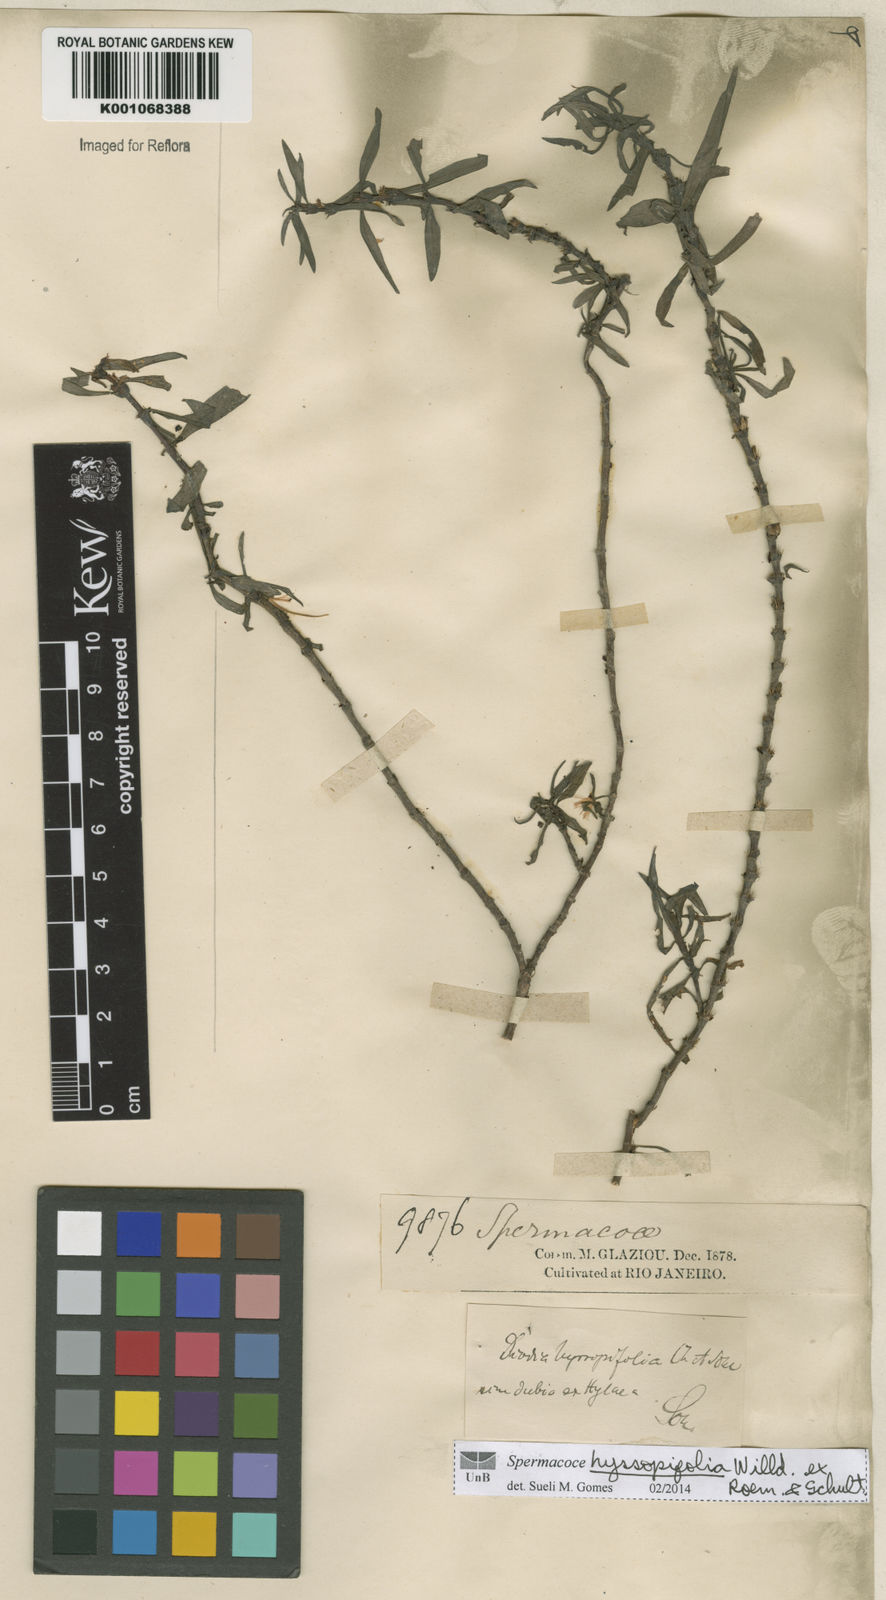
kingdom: Plantae
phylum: Tracheophyta
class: Magnoliopsida
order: Gentianales
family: Rubiaceae
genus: Spermacoce
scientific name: Spermacoce
